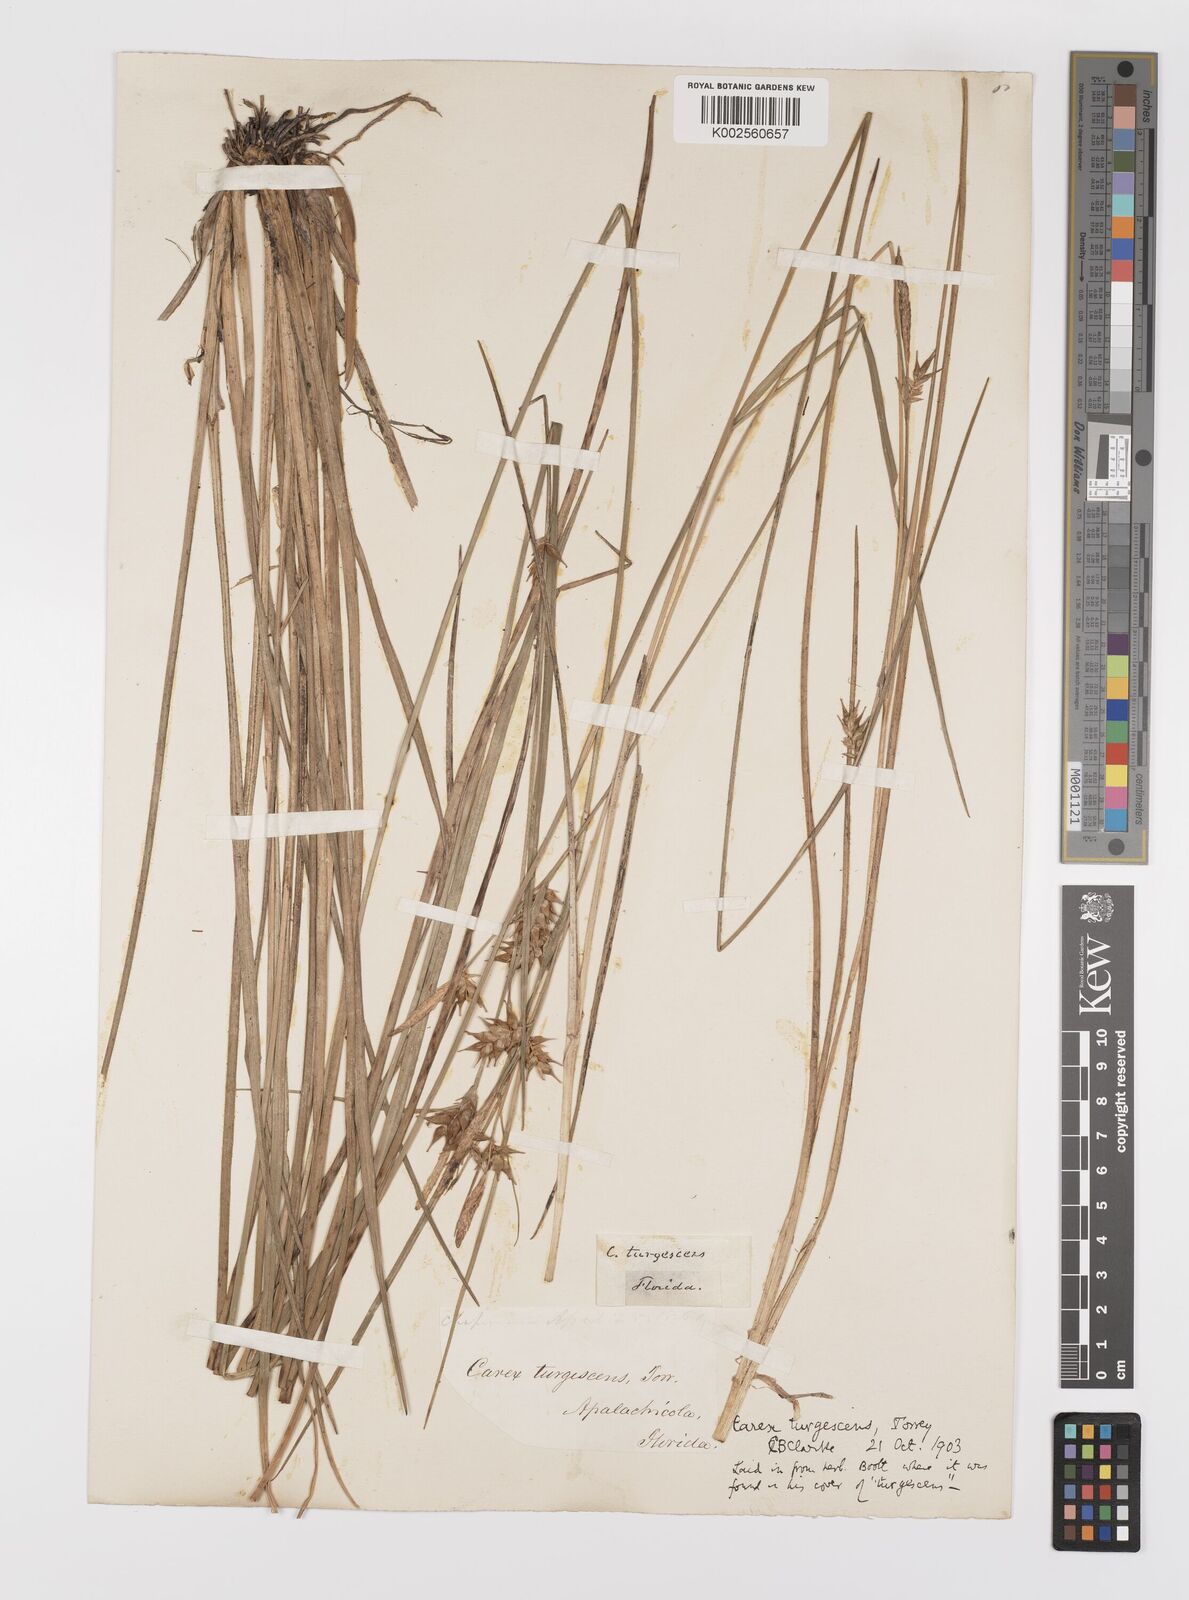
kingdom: Plantae
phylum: Tracheophyta
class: Liliopsida
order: Poales
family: Cyperaceae
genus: Carex
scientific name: Carex turgescens
